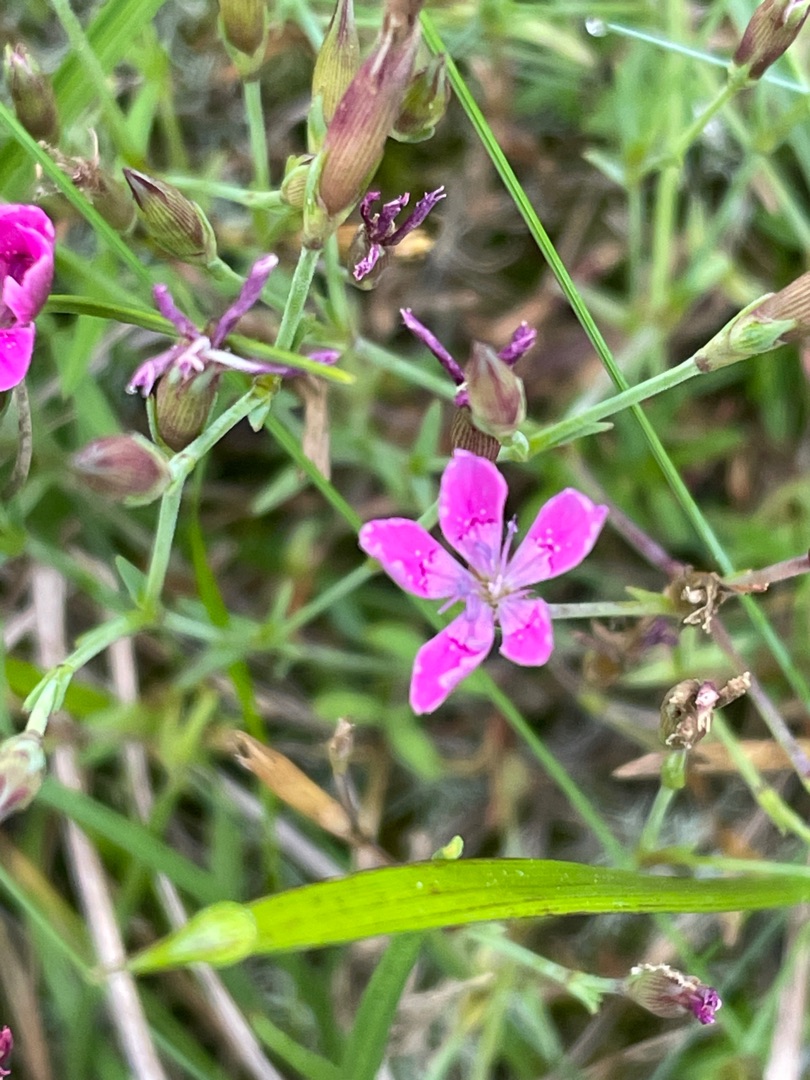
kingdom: Plantae
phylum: Tracheophyta
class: Magnoliopsida
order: Caryophyllales
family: Caryophyllaceae
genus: Dianthus
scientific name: Dianthus deltoides
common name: Bakke-nellike
